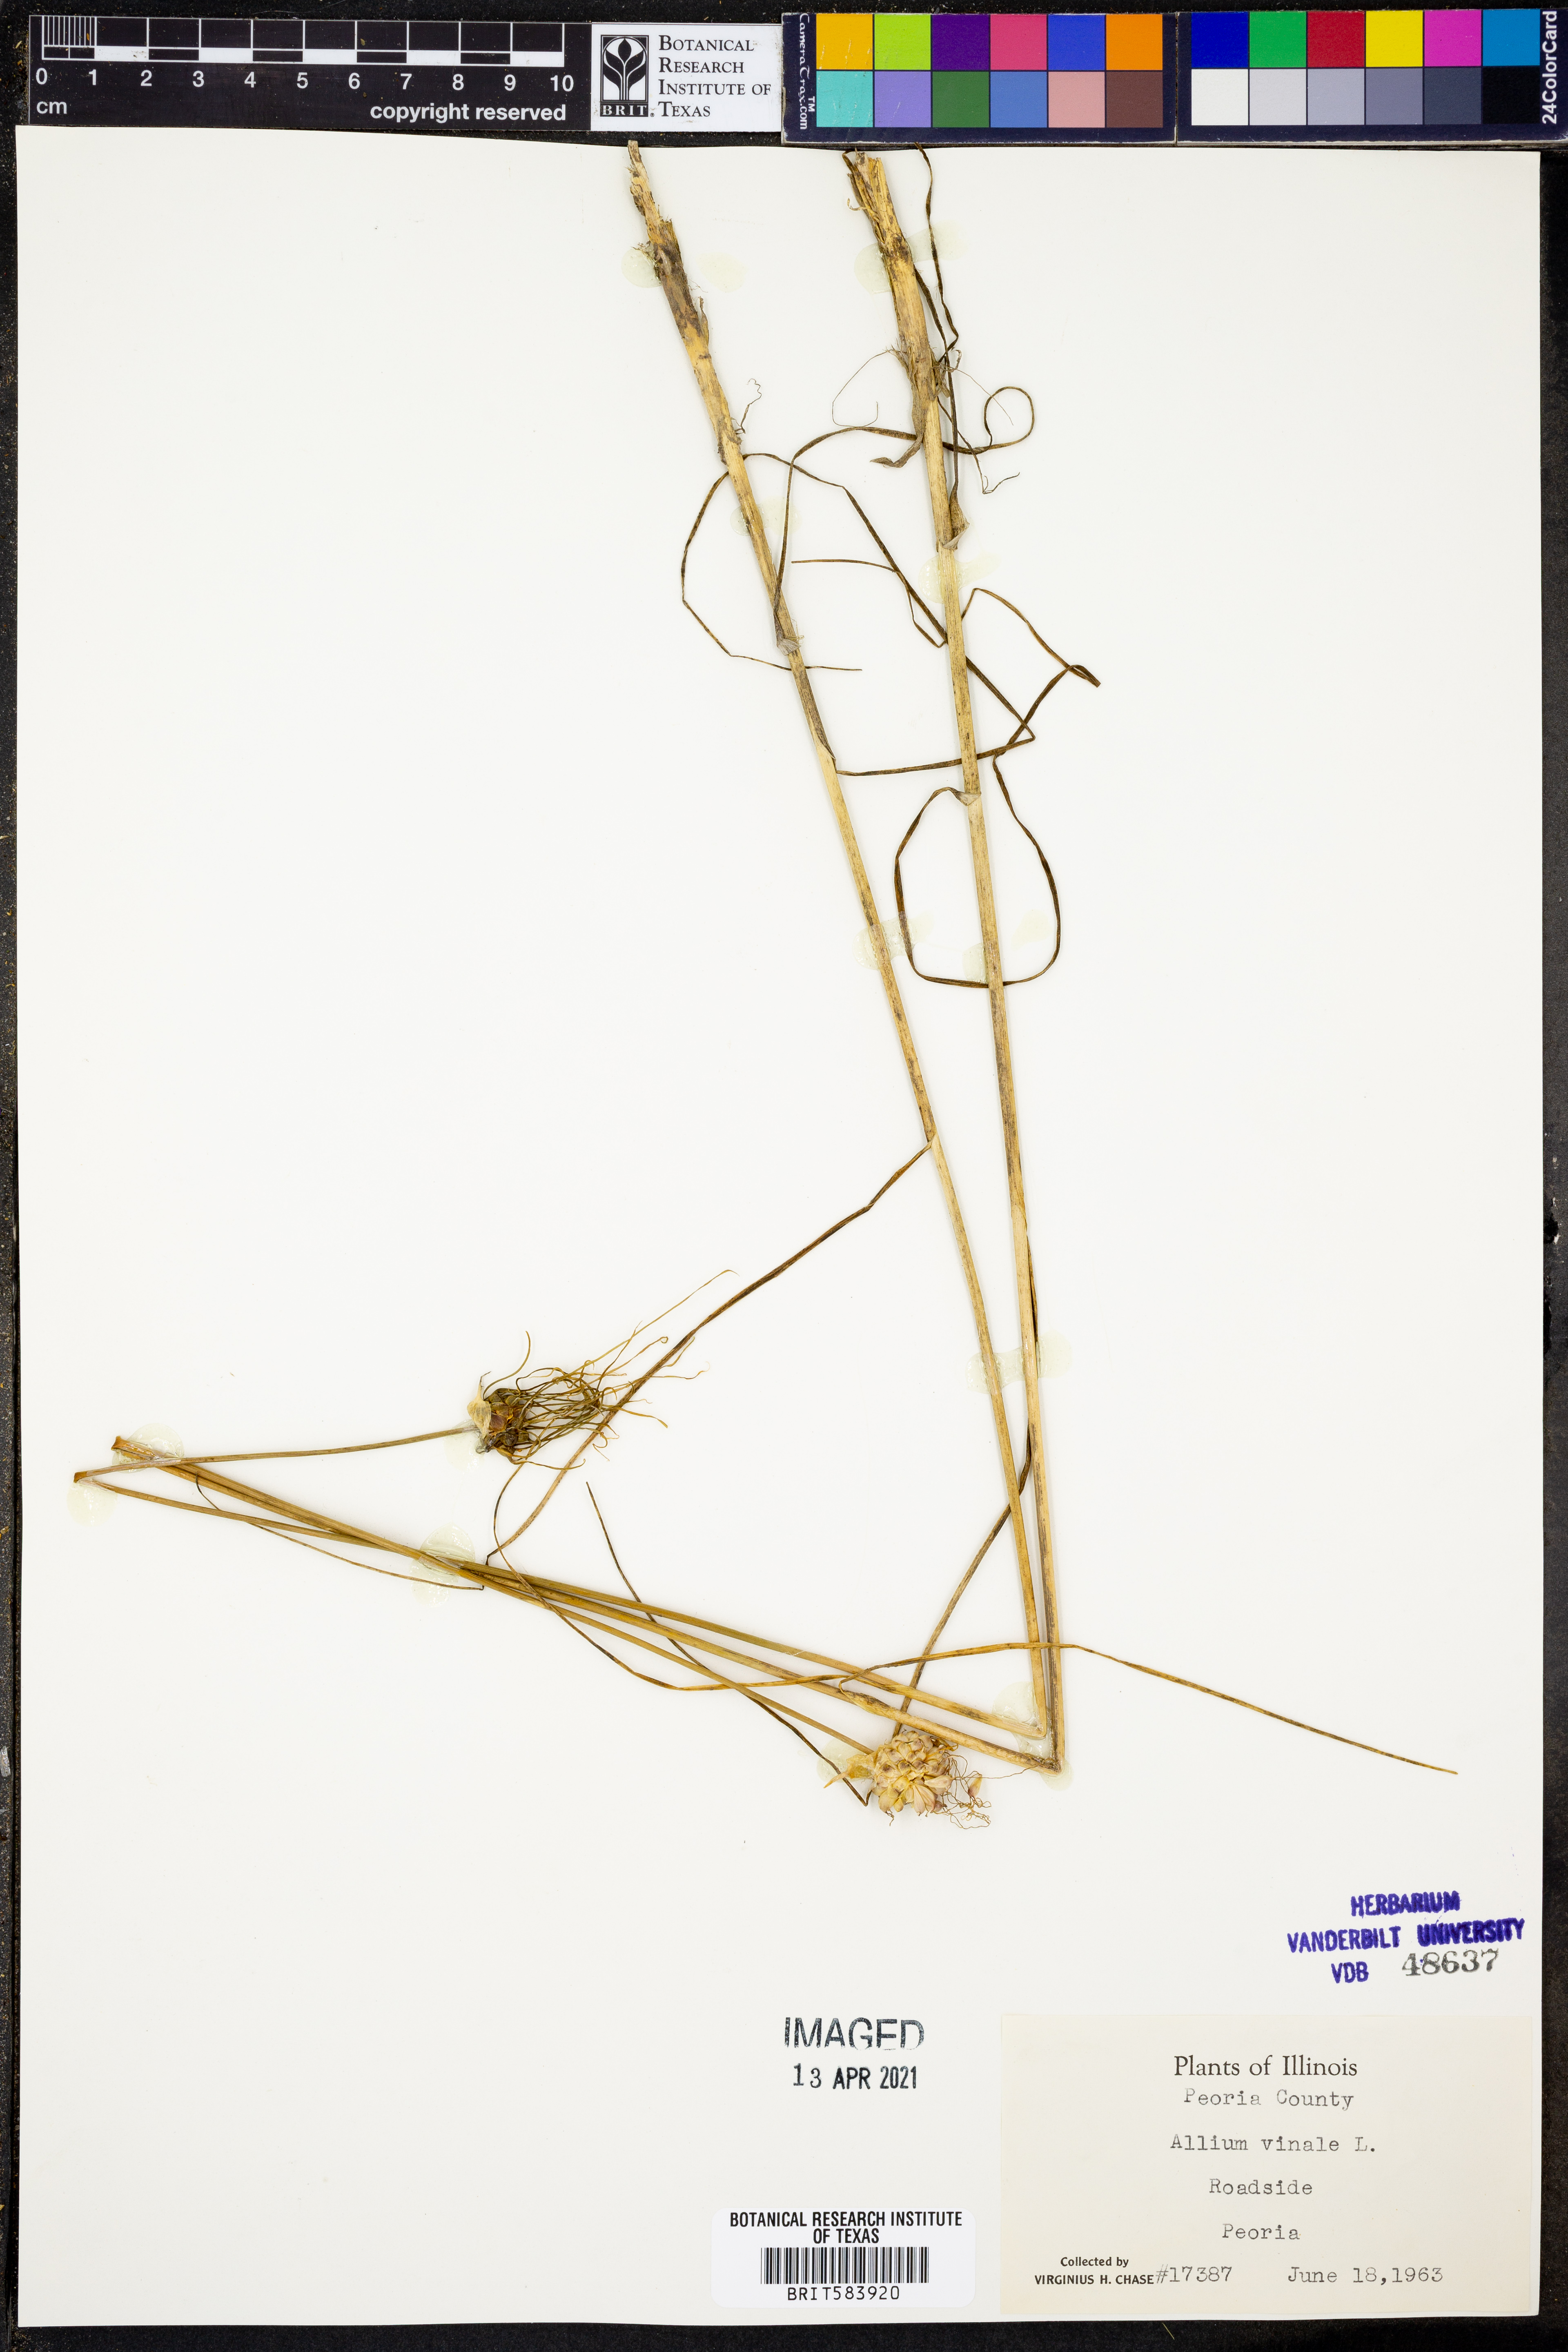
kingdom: Plantae
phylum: Tracheophyta
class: Liliopsida
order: Asparagales
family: Amaryllidaceae
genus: Allium
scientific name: Allium vineale
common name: Crow garlic
